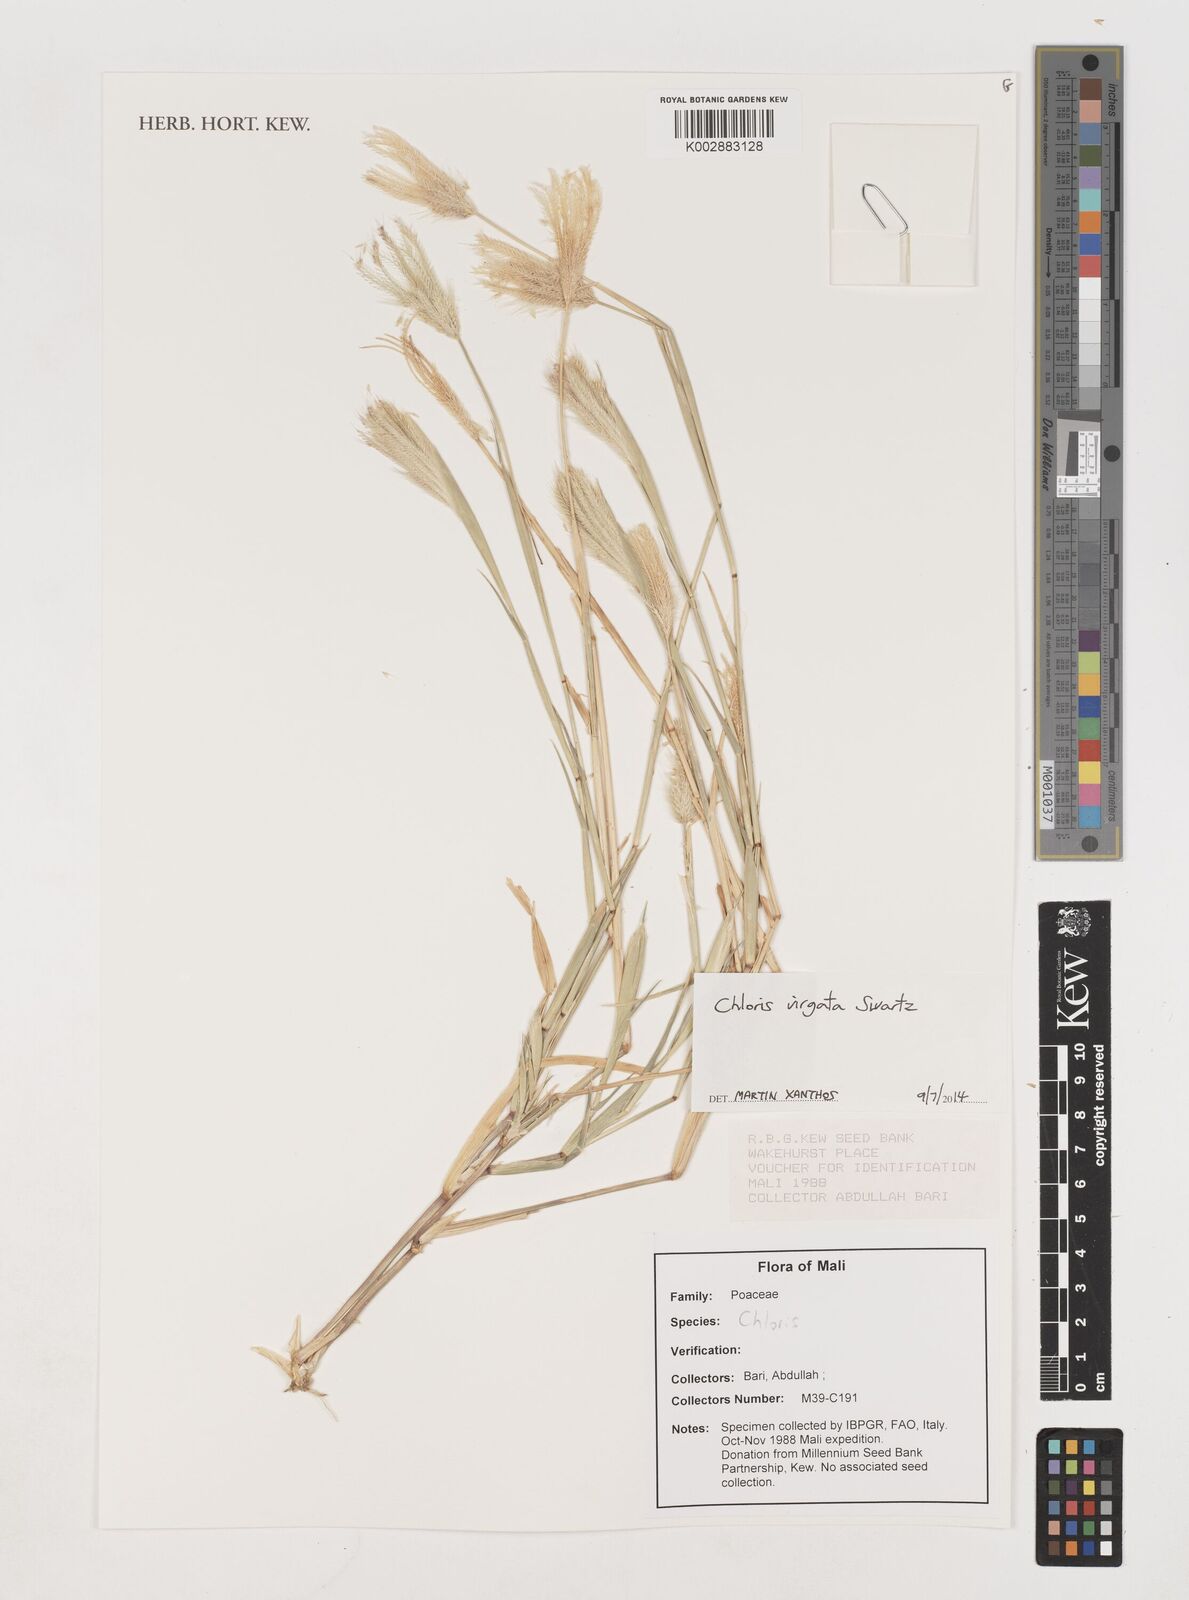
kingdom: Plantae
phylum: Tracheophyta
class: Liliopsida
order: Poales
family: Poaceae
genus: Chloris
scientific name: Chloris virgata
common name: Feathery rhodes-grass
